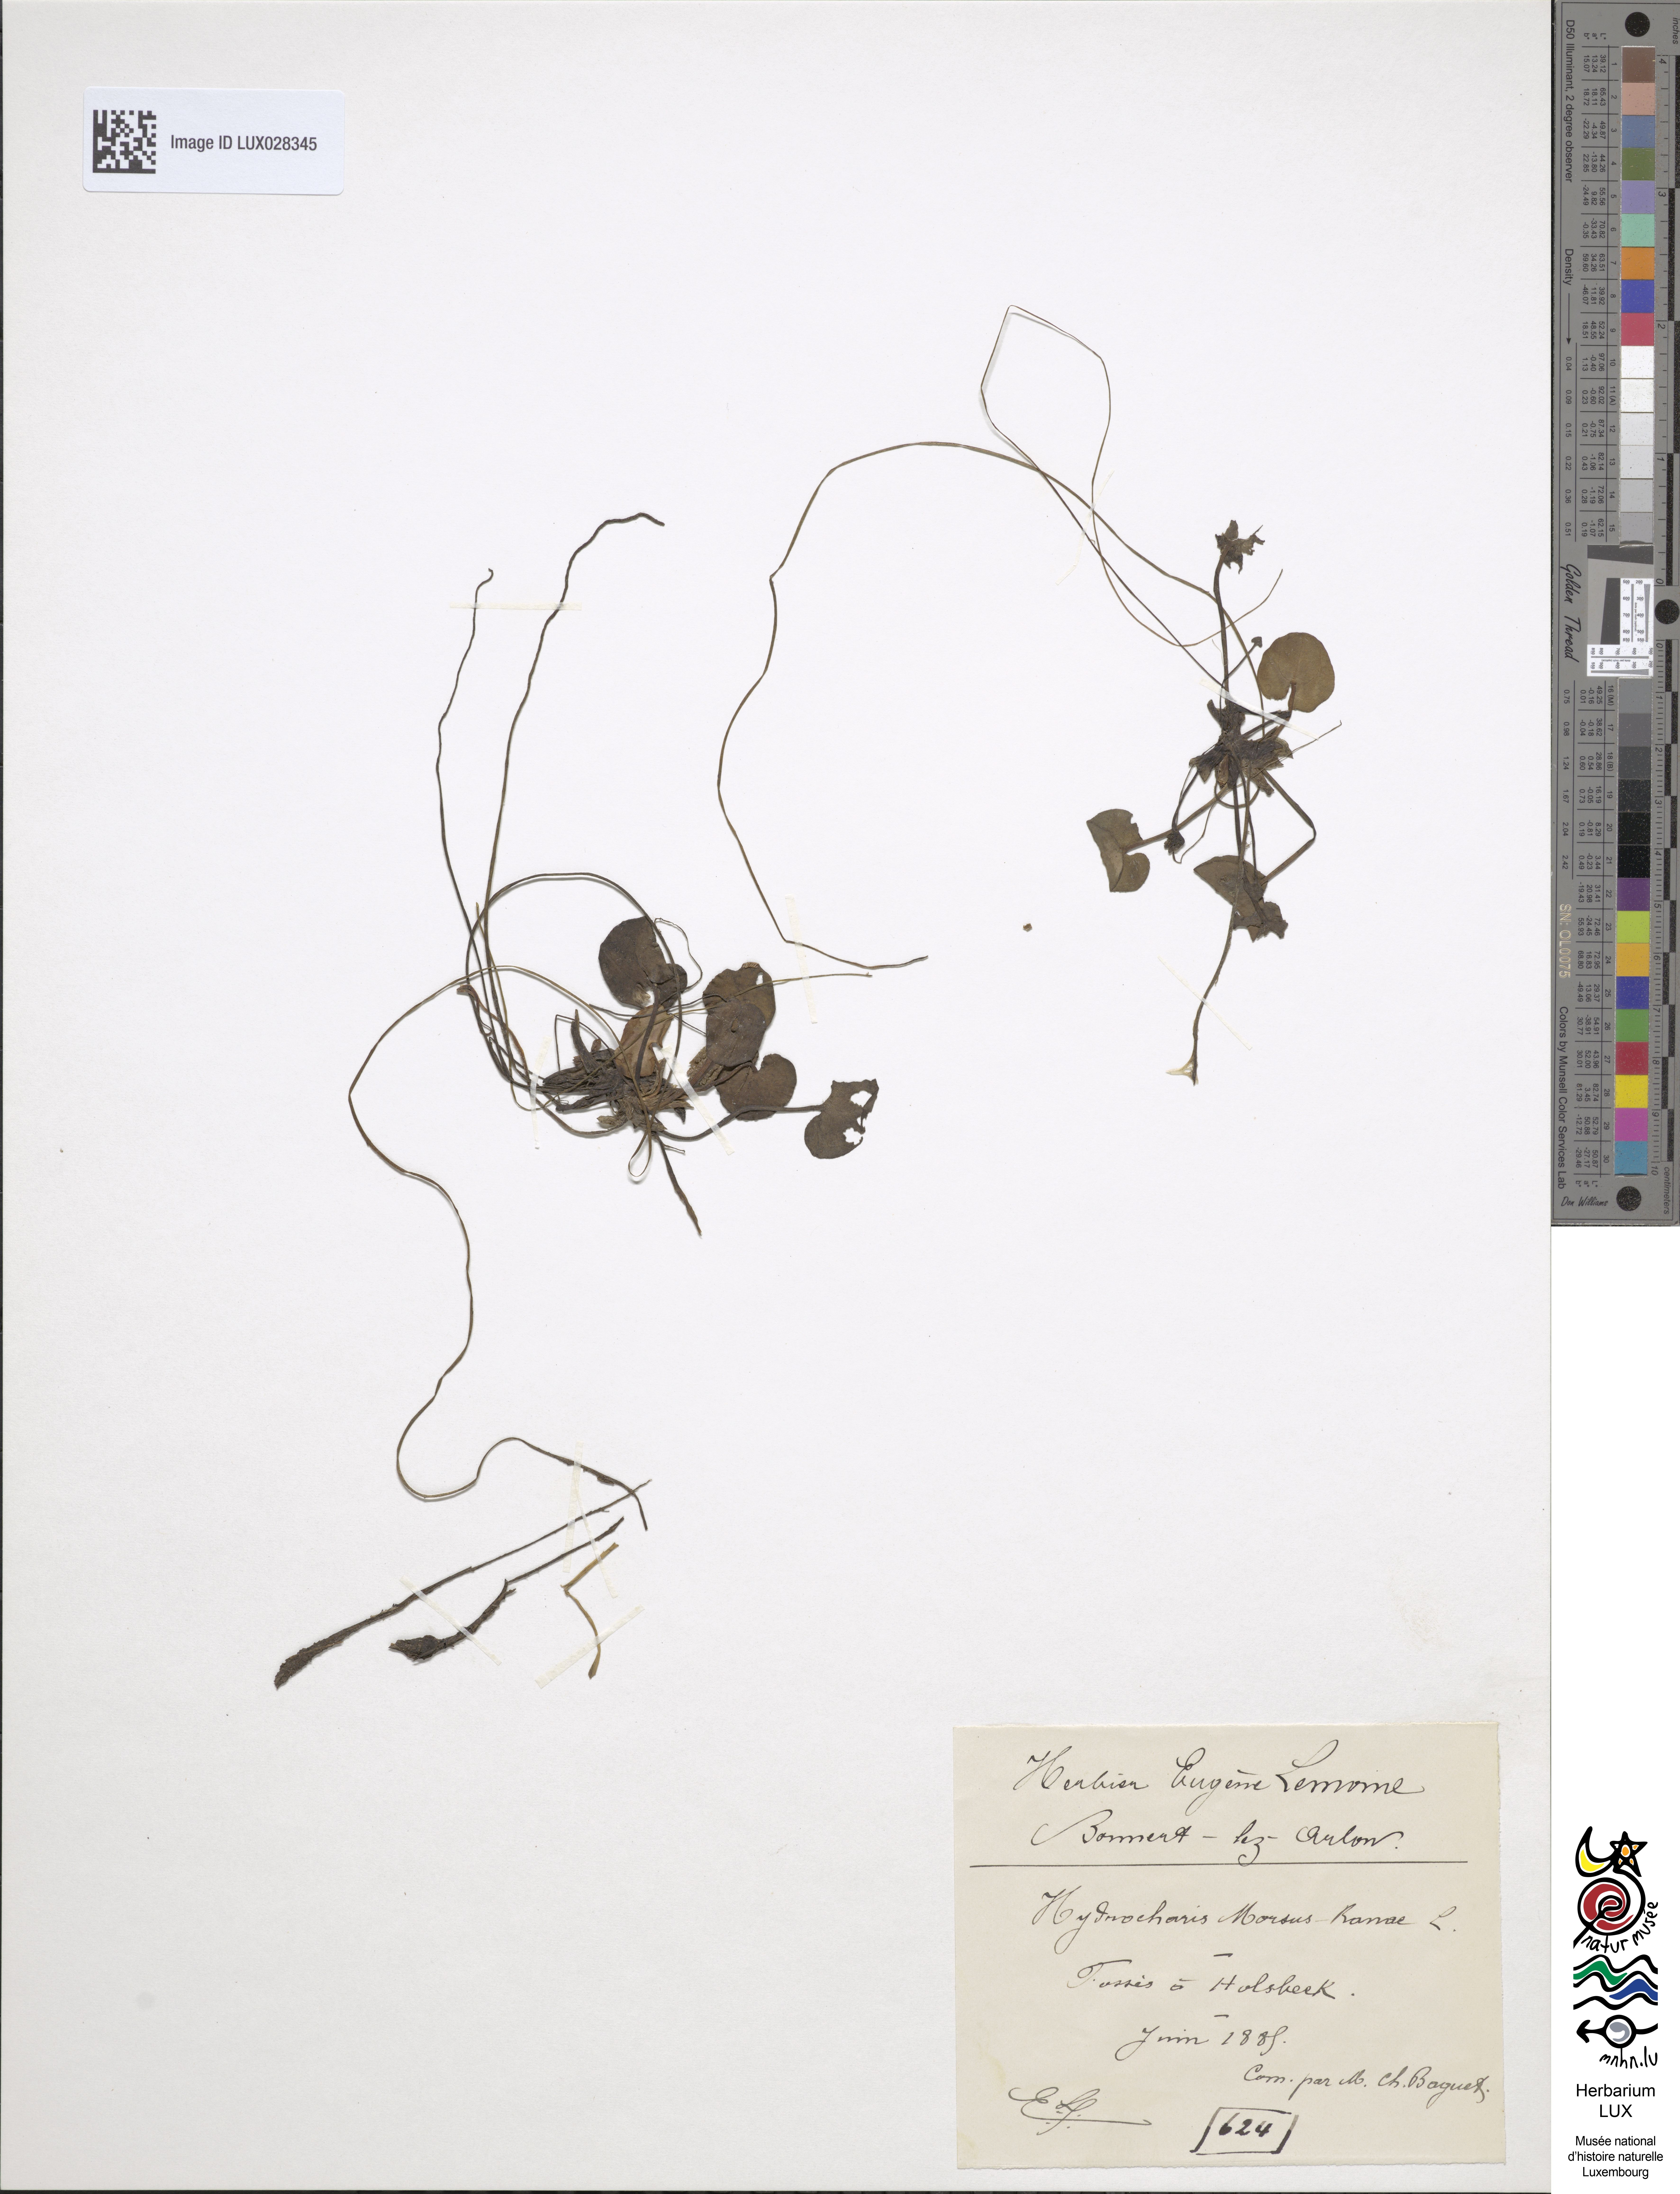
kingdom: Plantae
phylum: Tracheophyta
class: Liliopsida
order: Alismatales
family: Hydrocharitaceae
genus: Hydrocharis
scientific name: Hydrocharis morsus-ranae
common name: Frogbit
